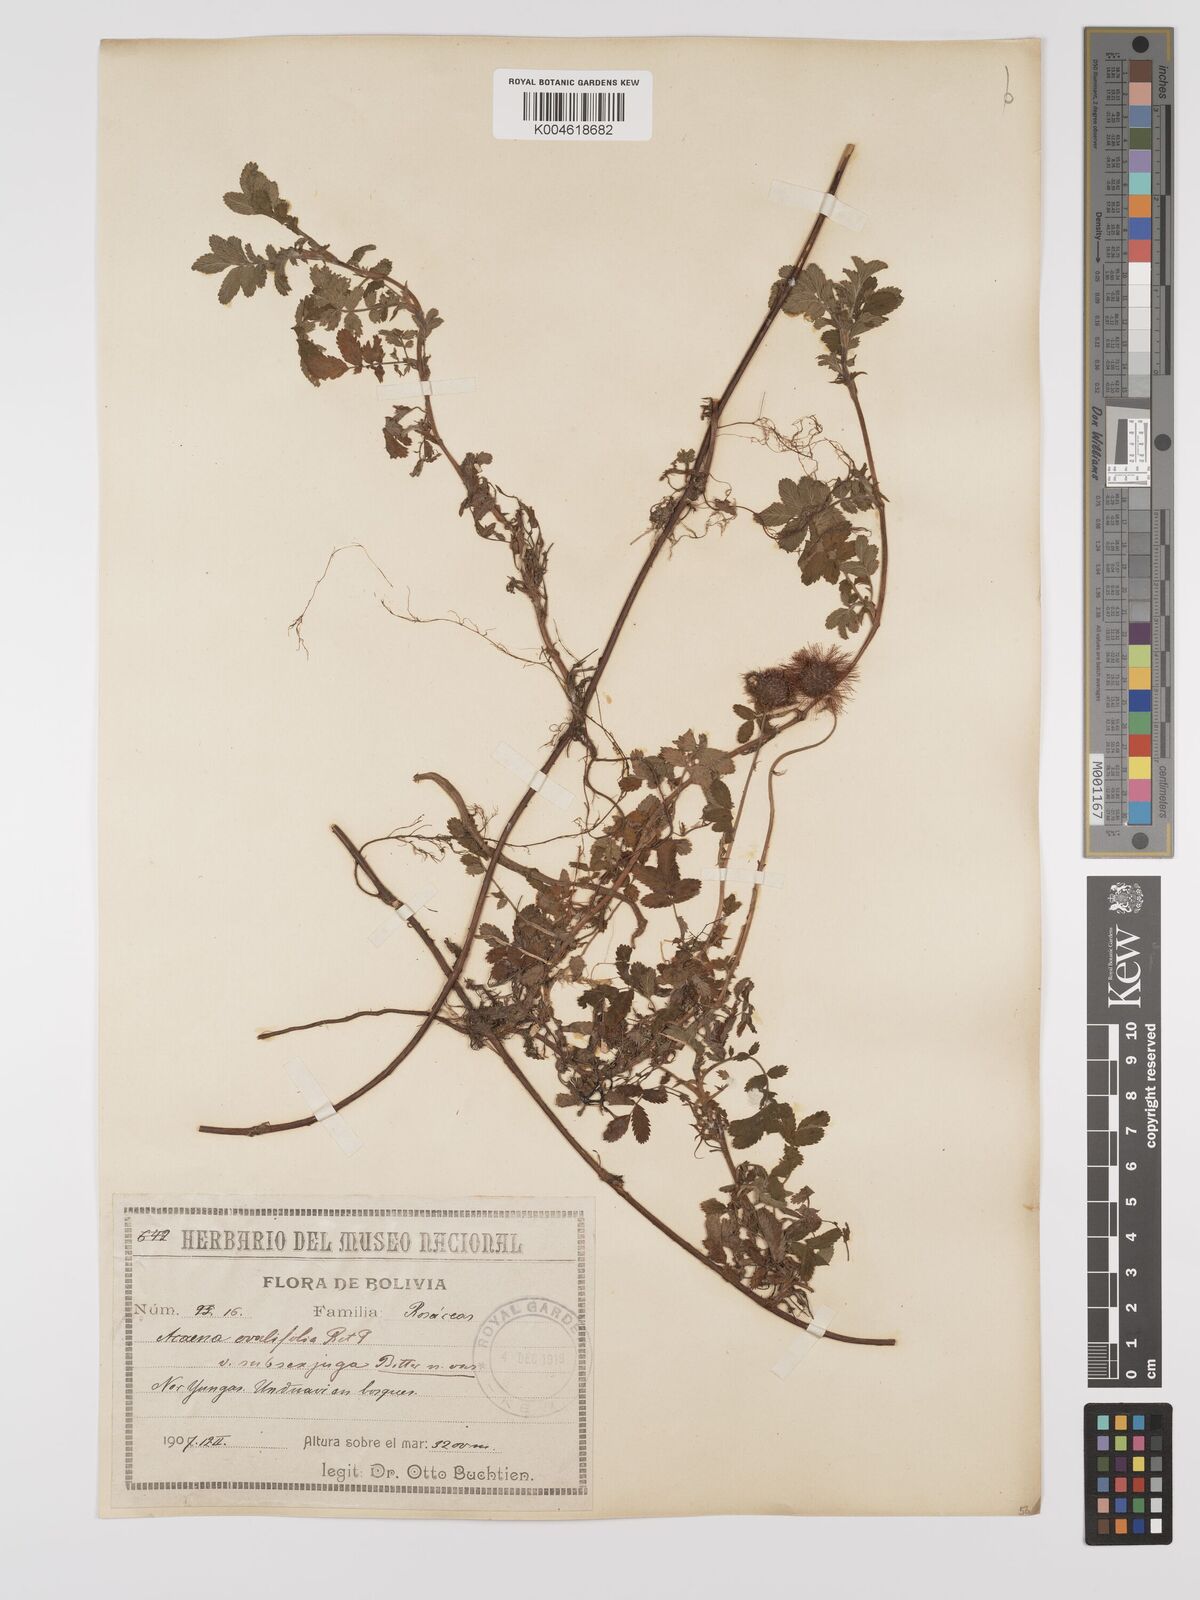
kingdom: Plantae
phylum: Tracheophyta
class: Magnoliopsida
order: Rosales
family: Rosaceae
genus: Acaena
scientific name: Acaena ovalifolia
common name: Two-spined acaena
